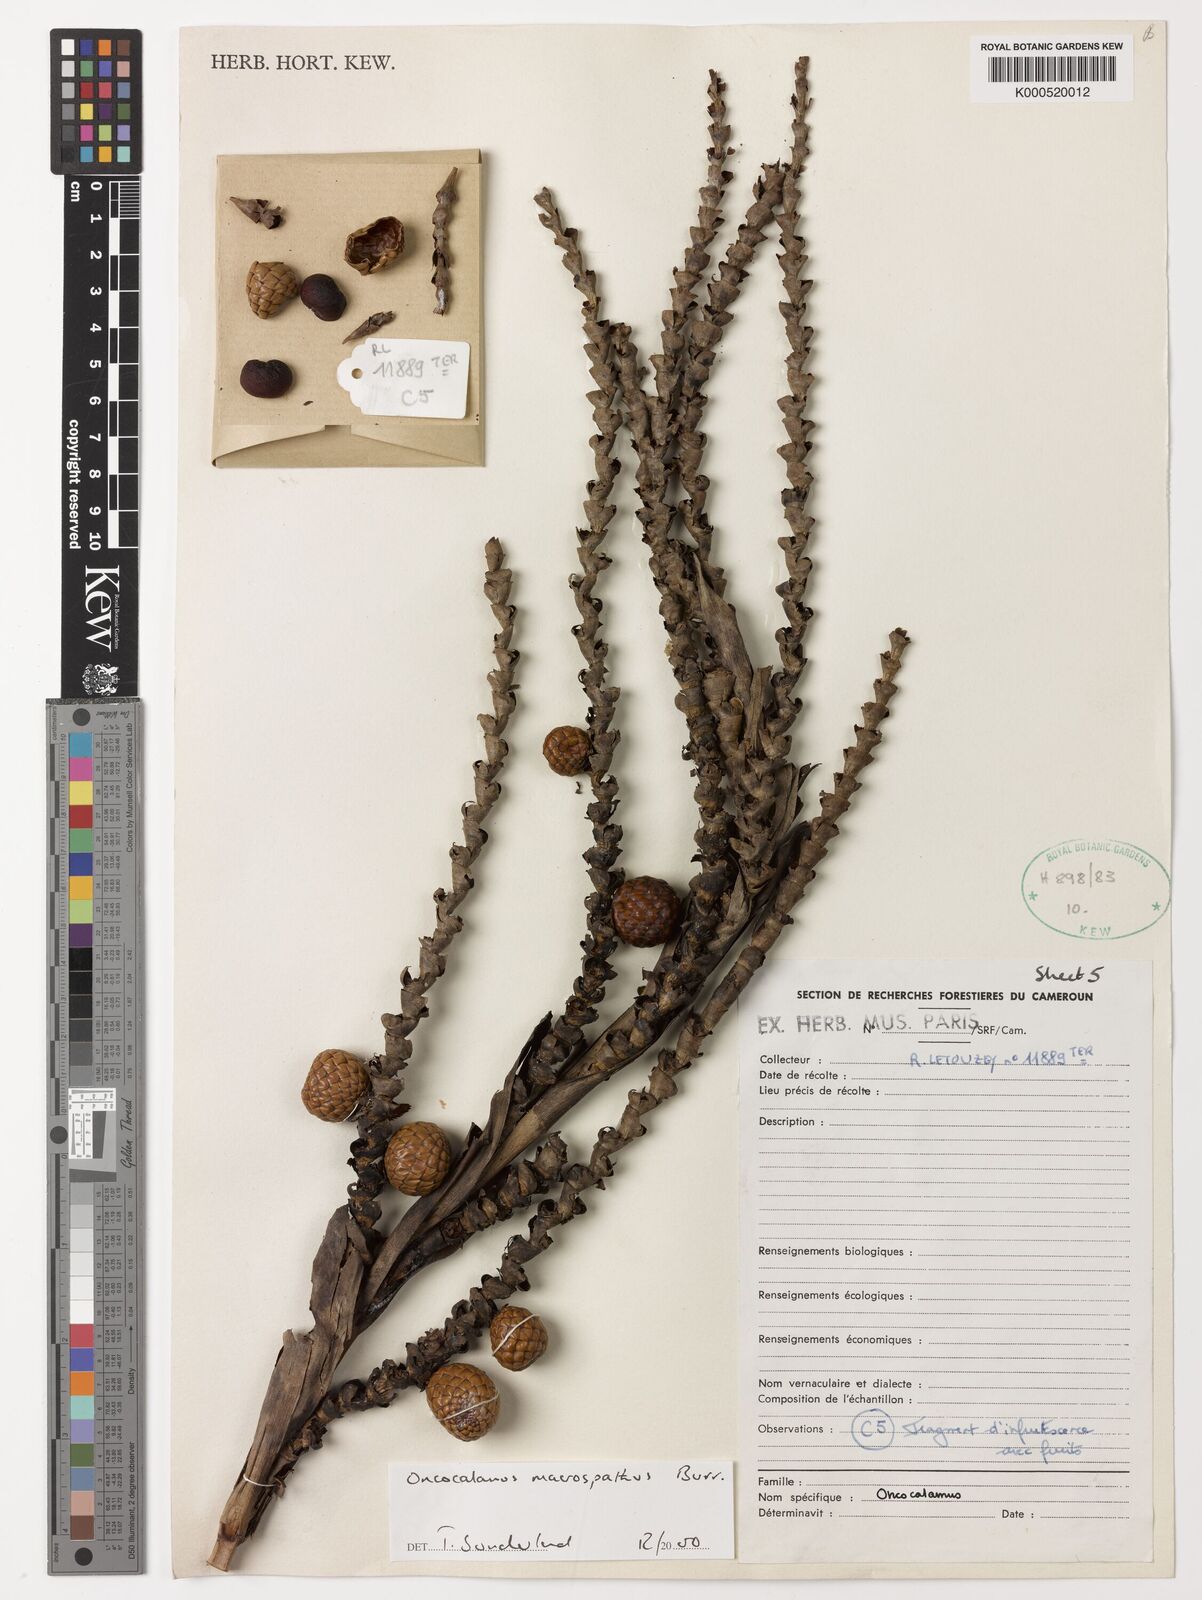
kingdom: Plantae
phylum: Tracheophyta
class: Liliopsida
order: Arecales
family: Arecaceae
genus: Oncocalamus
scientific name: Oncocalamus macrospathus
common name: Rattan
